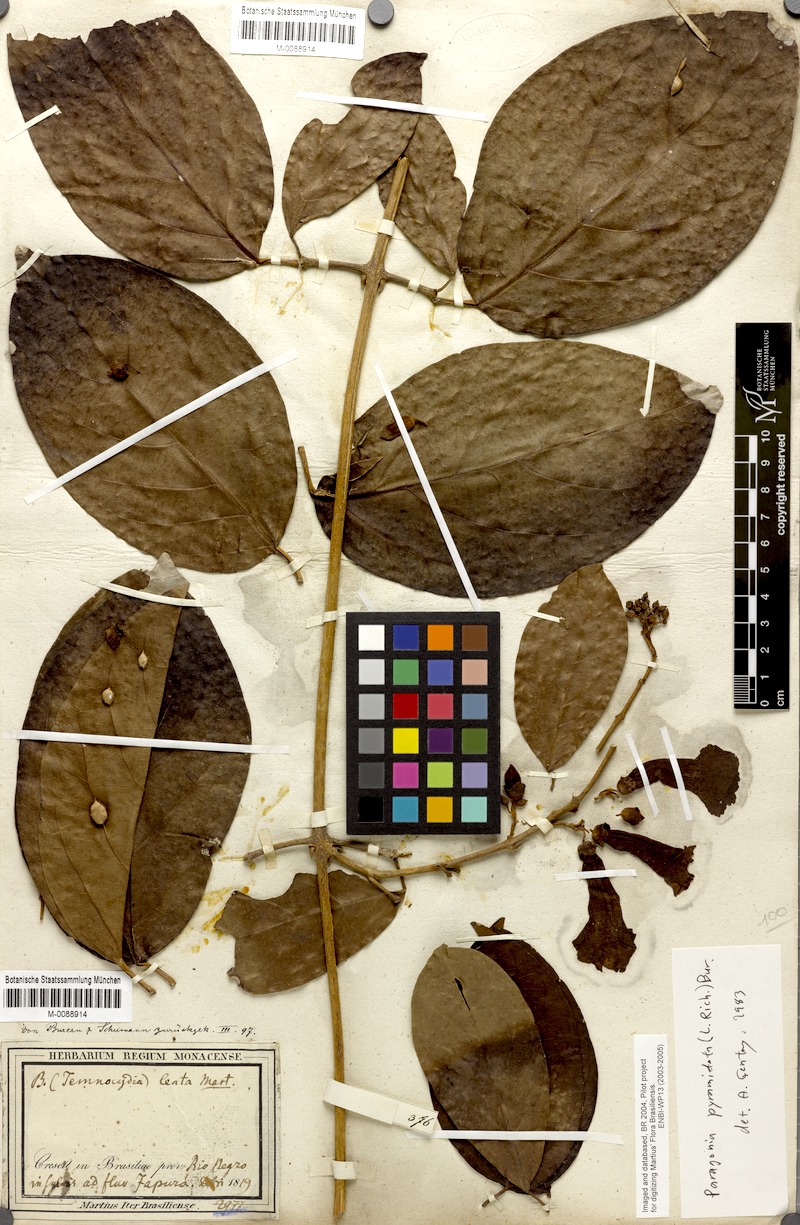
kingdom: Plantae
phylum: Tracheophyta
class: Magnoliopsida
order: Lamiales
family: Bignoniaceae
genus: Tanaecium
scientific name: Tanaecium pyramidatum
